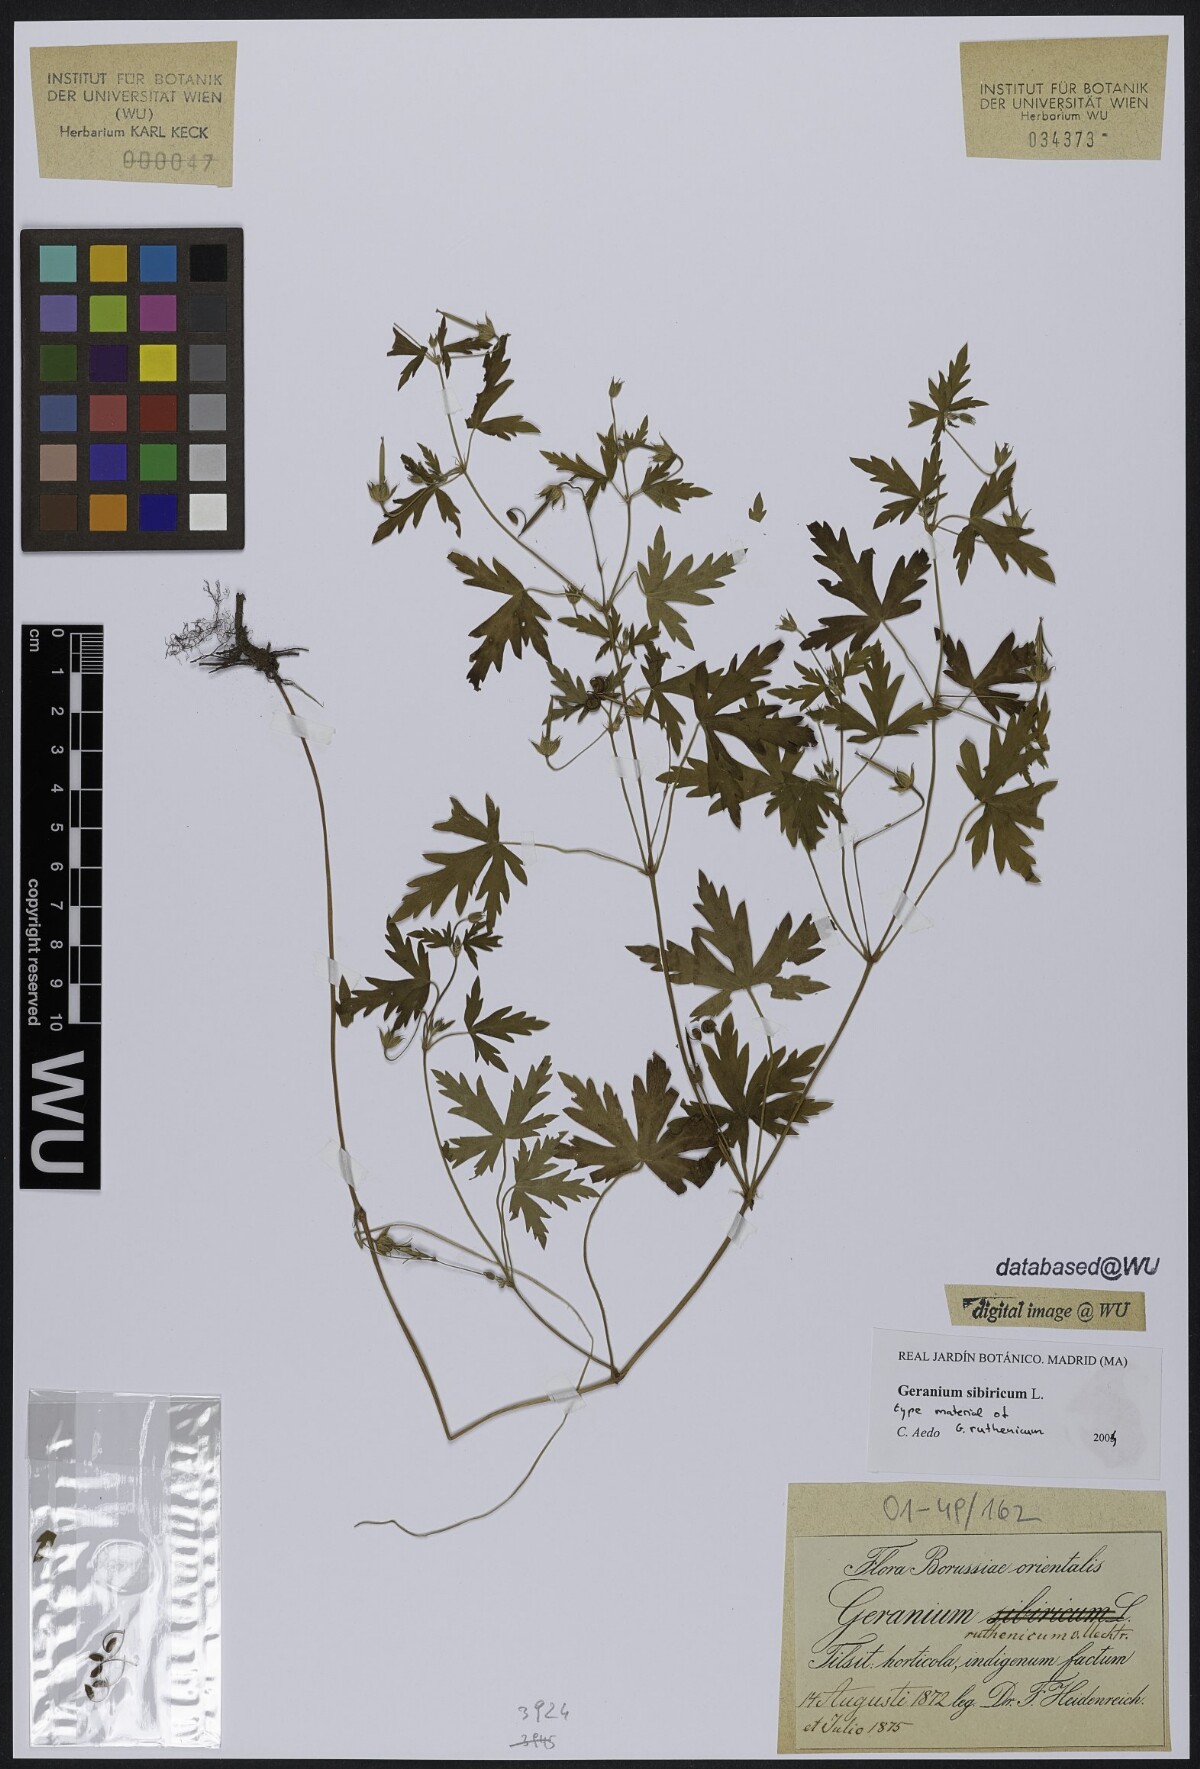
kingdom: Plantae
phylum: Tracheophyta
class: Magnoliopsida
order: Geraniales
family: Geraniaceae
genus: Geranium
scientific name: Geranium sibiricum
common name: Siberian crane's-bill
